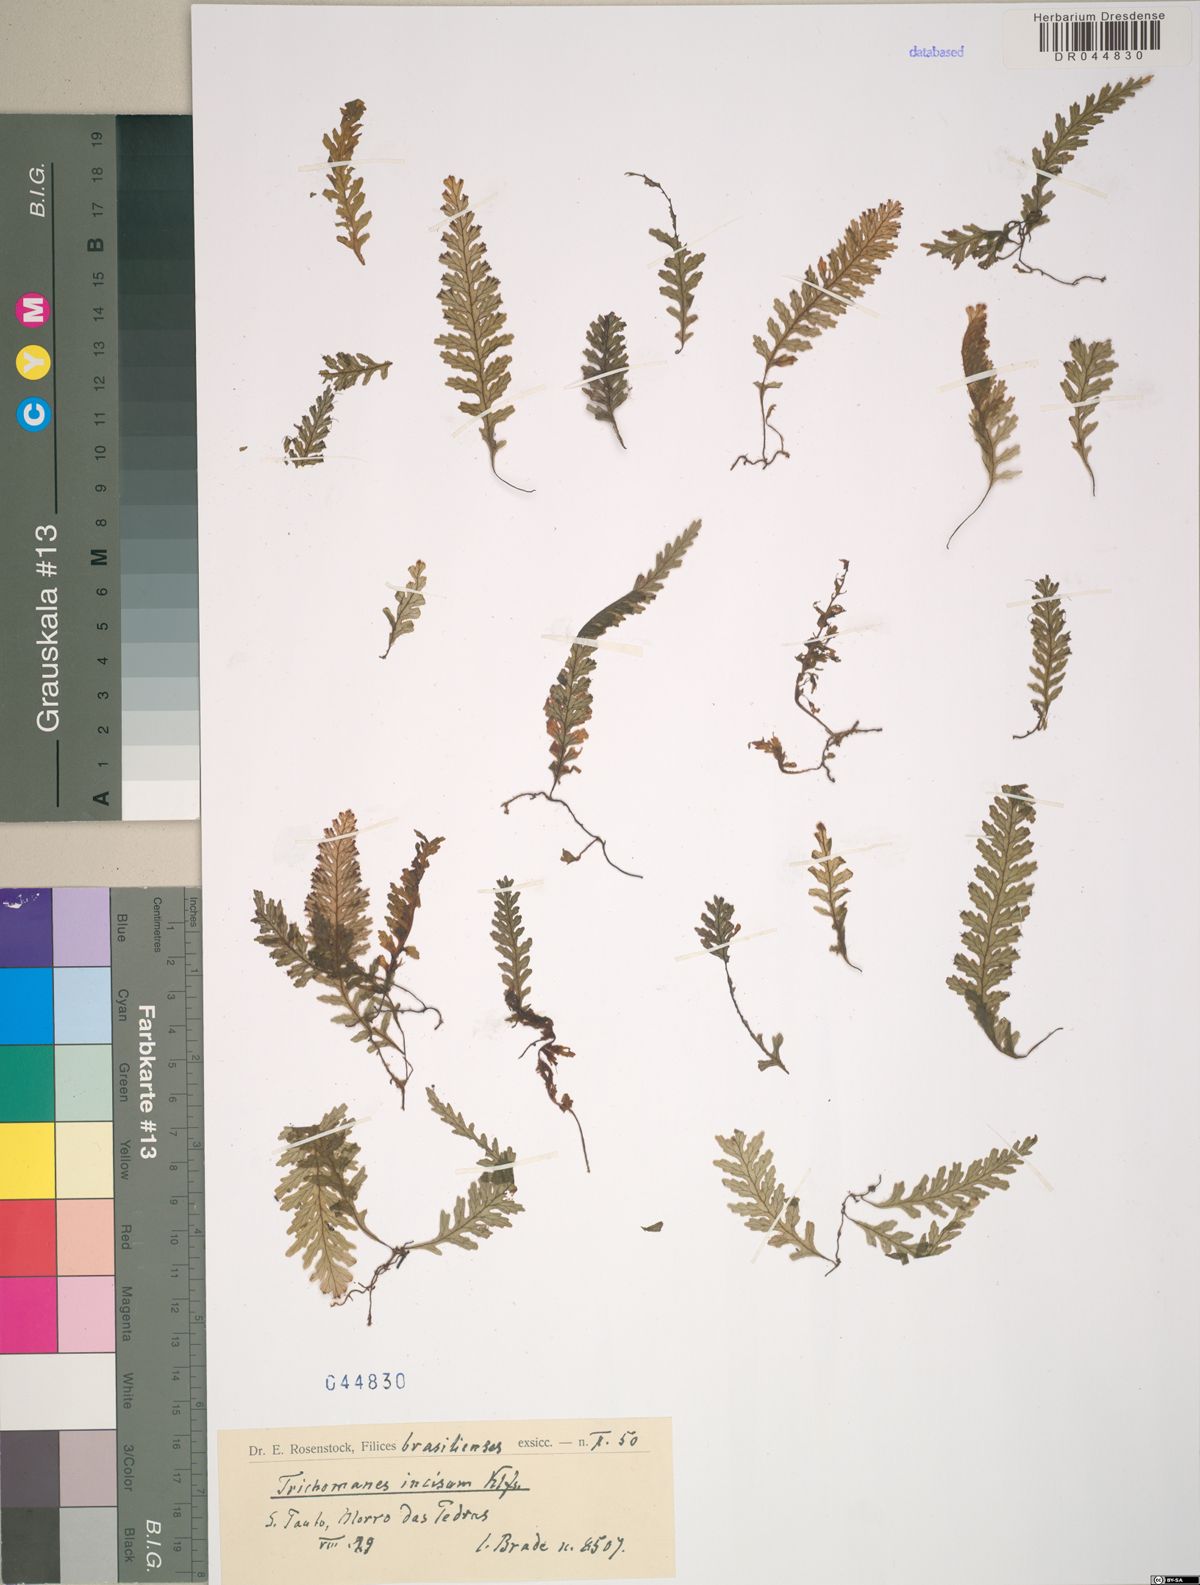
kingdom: Plantae
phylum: Tracheophyta
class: Polypodiopsida
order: Hymenophyllales
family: Hymenophyllaceae
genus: Trichomanes
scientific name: Trichomanes
